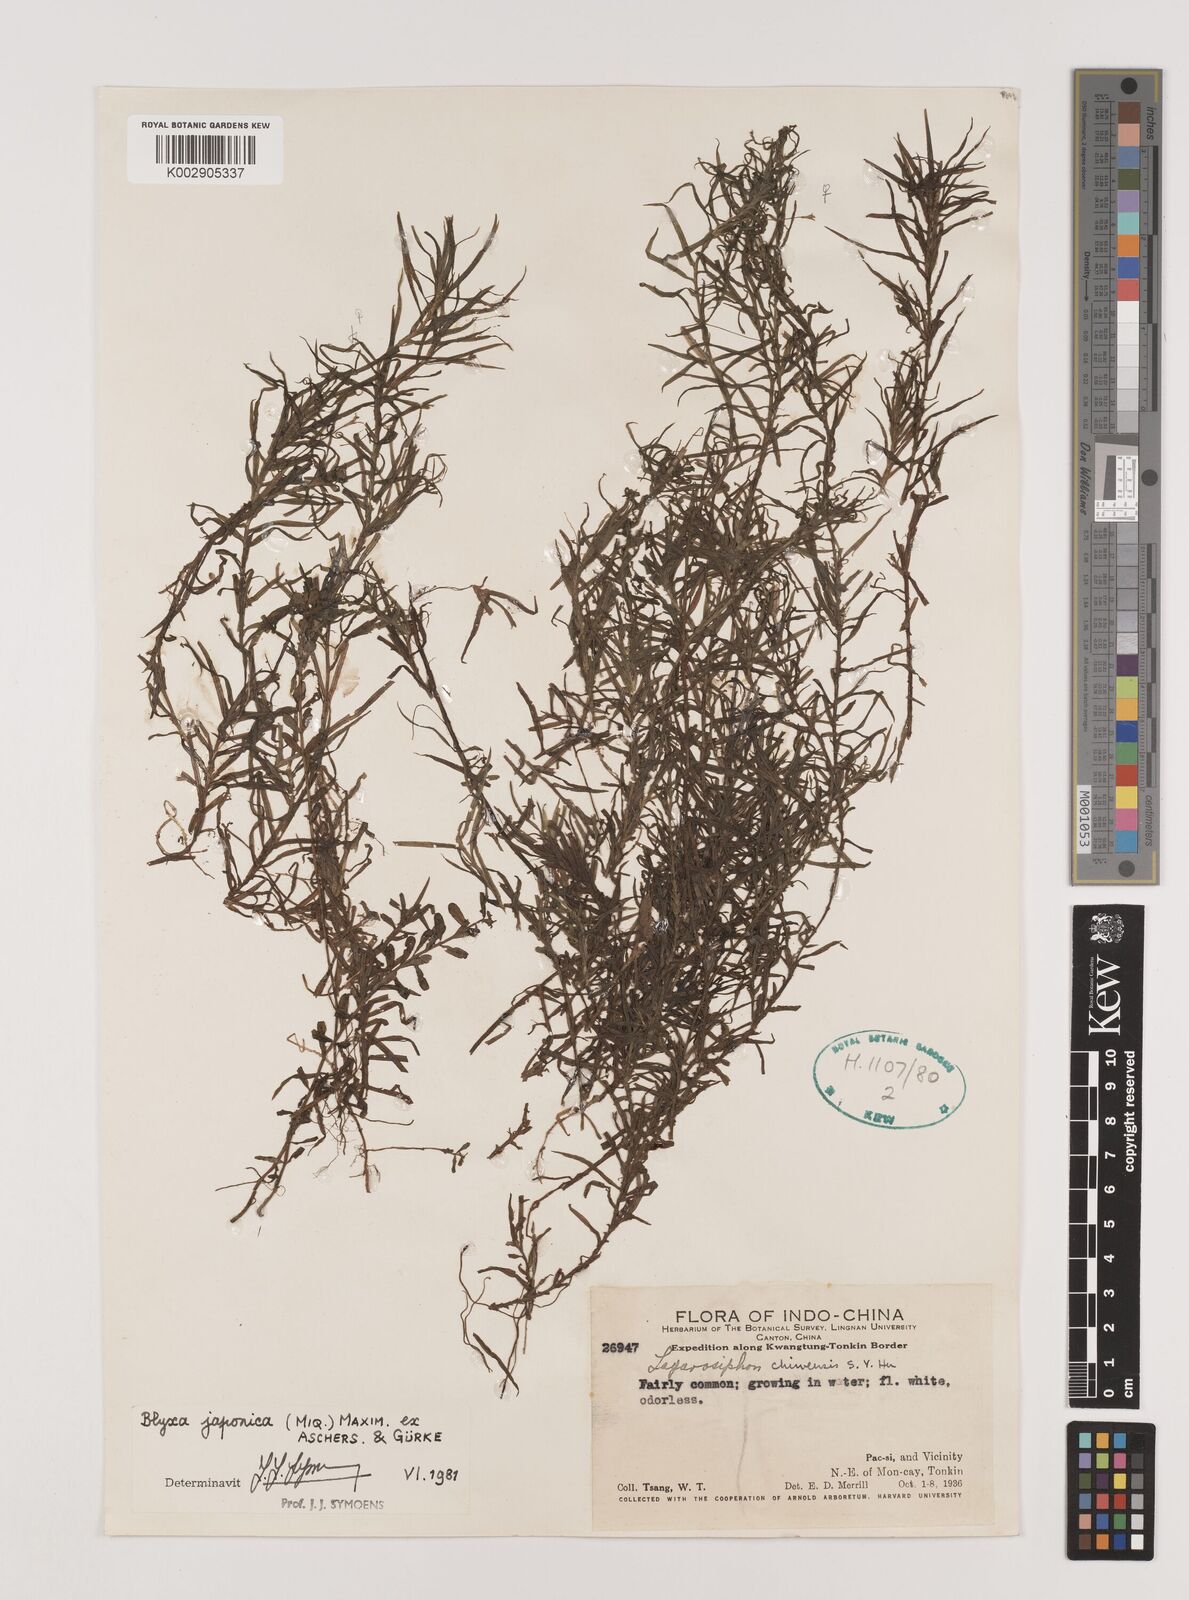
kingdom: Plantae
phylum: Tracheophyta
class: Liliopsida
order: Alismatales
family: Hydrocharitaceae
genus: Blyxa
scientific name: Blyxa japonica
